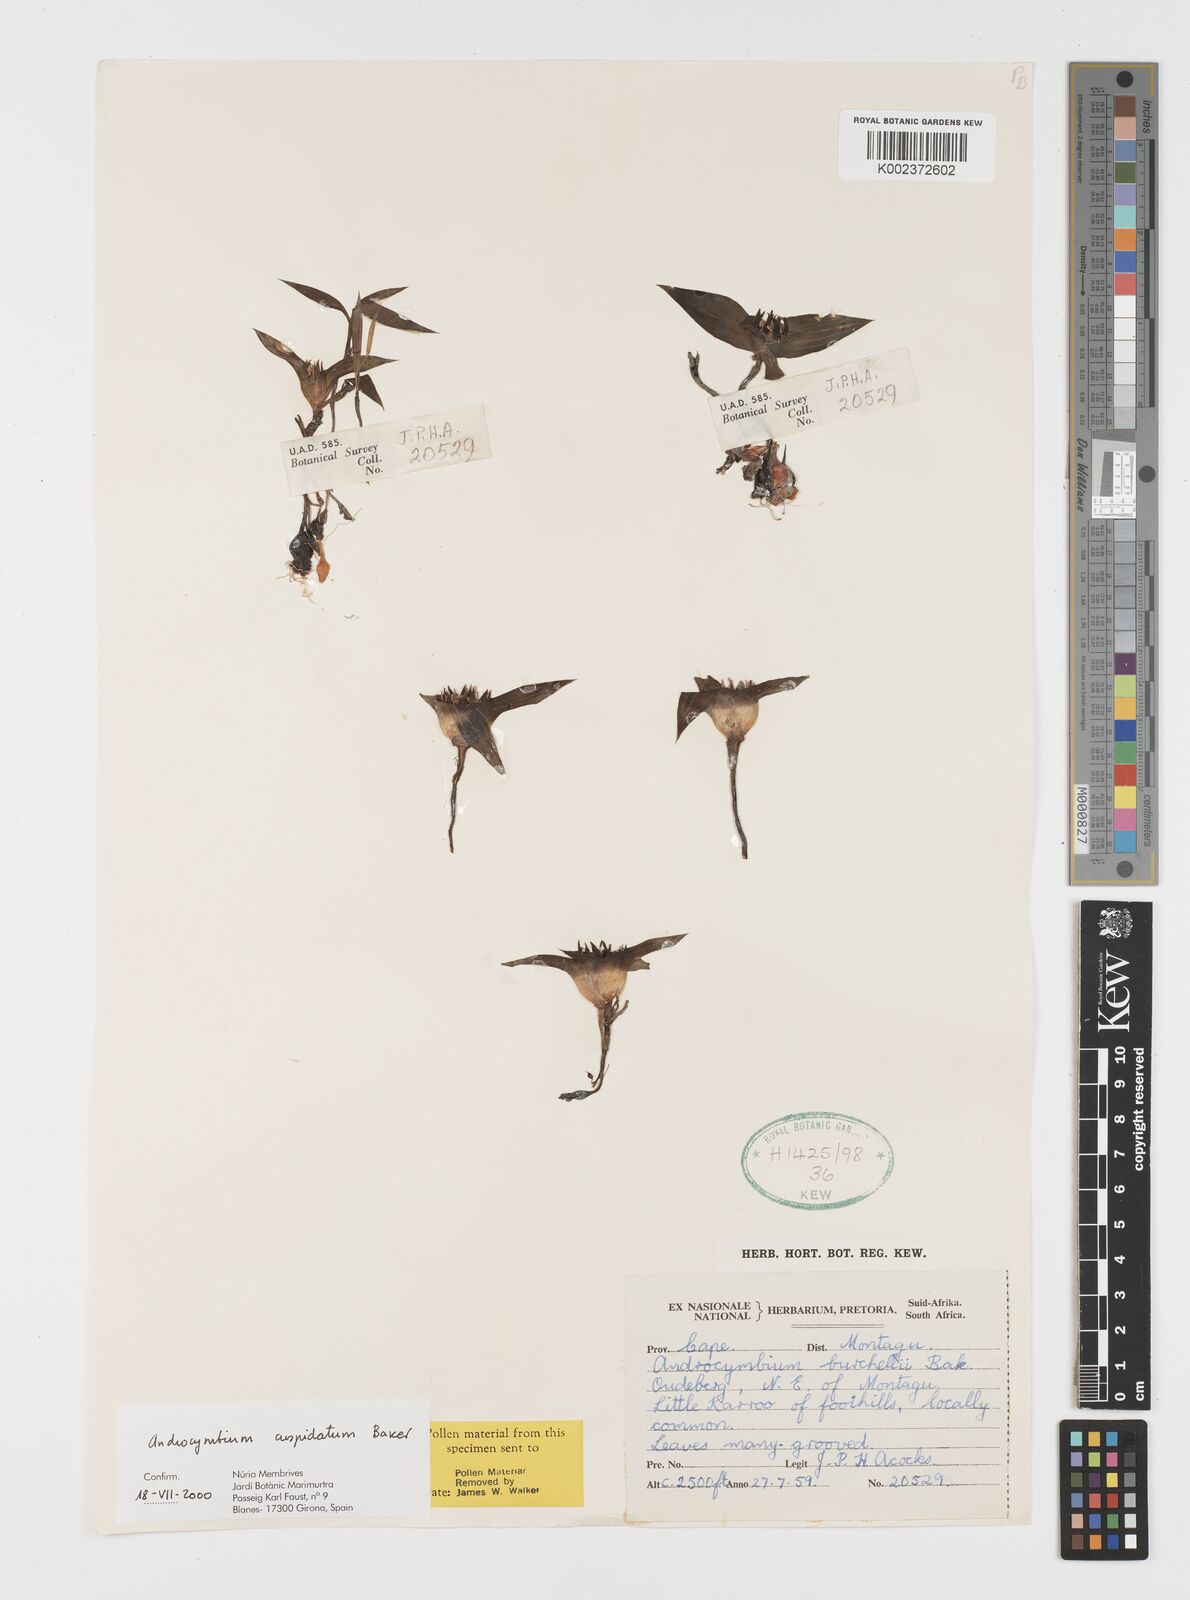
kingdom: Plantae
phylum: Tracheophyta
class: Liliopsida
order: Liliales
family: Colchicaceae
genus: Colchicum
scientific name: Colchicum cuspidatum
